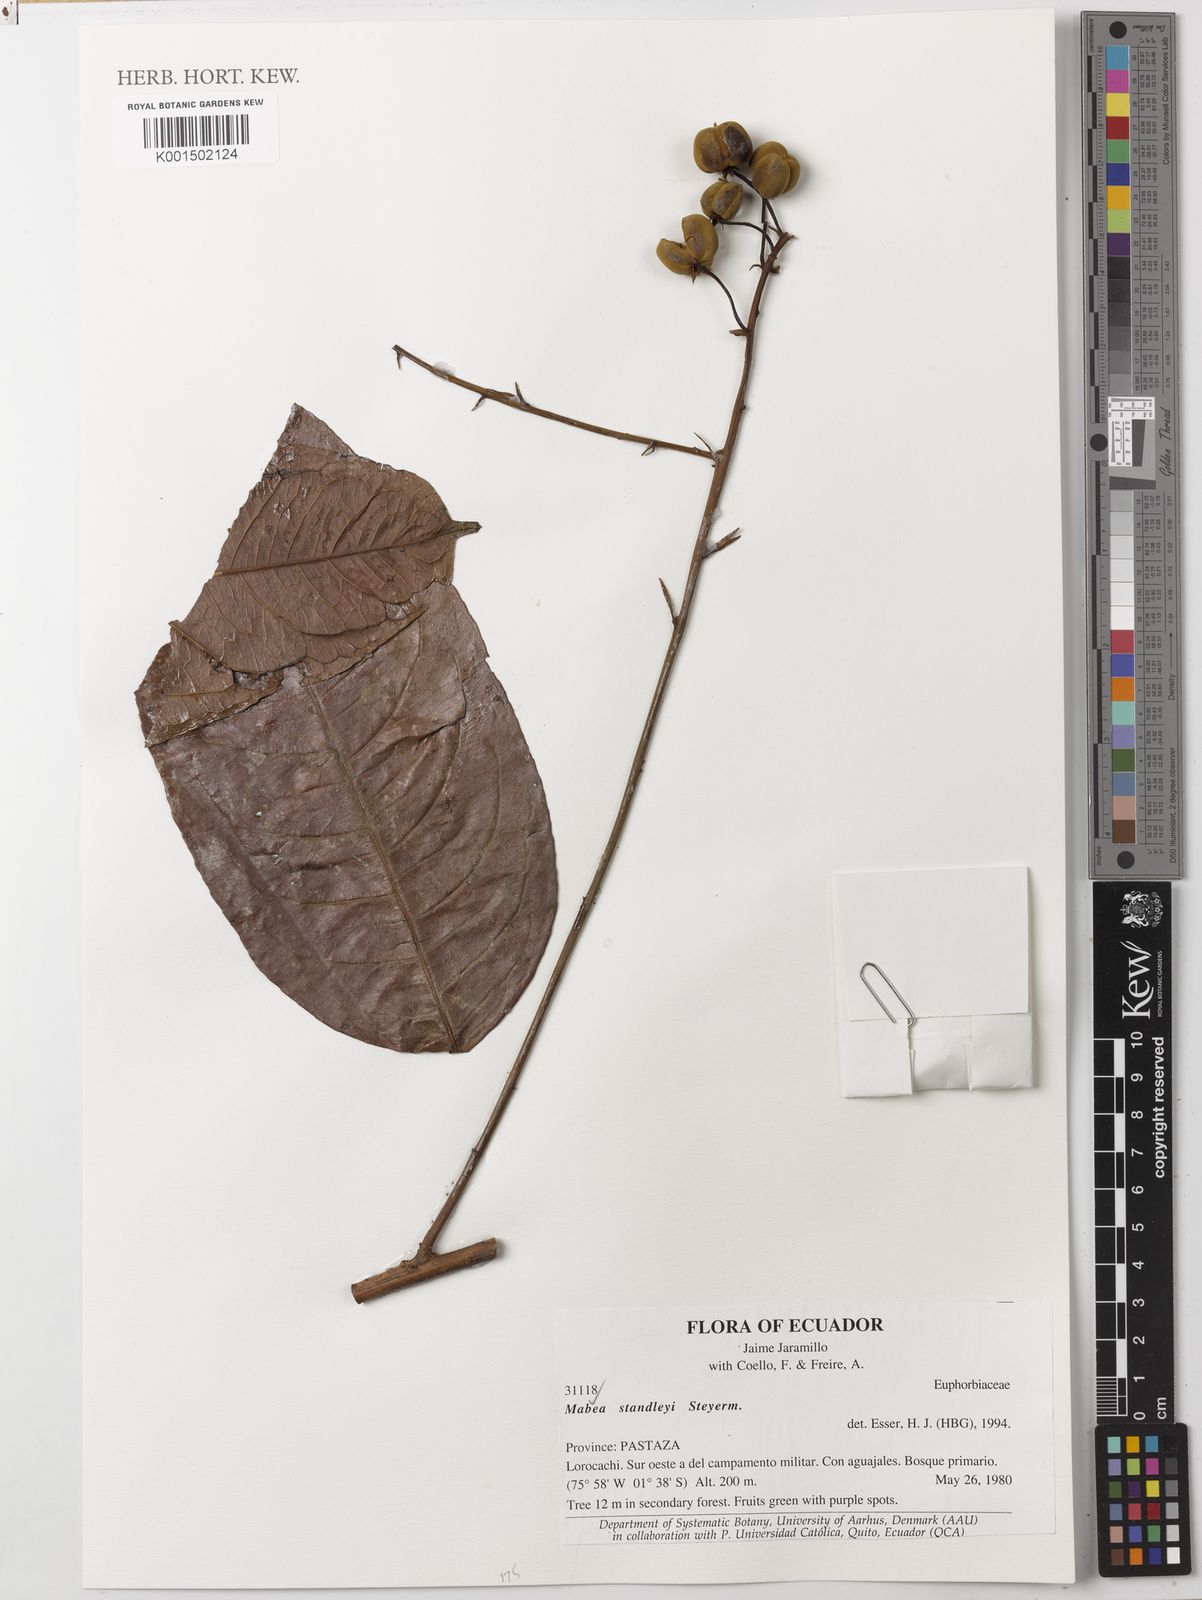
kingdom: Plantae
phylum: Tracheophyta
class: Magnoliopsida
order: Malpighiales
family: Euphorbiaceae
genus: Mabea
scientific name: Mabea standleyi
